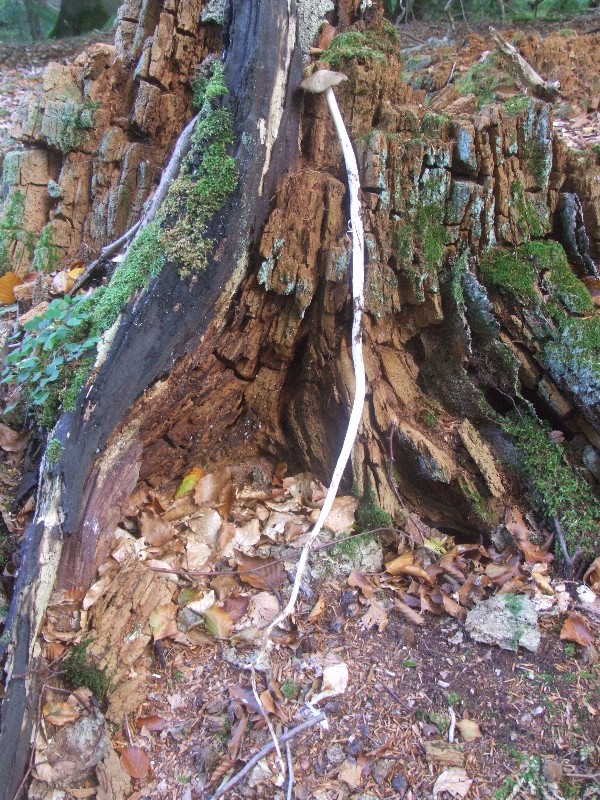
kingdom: Fungi
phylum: Basidiomycota
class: Agaricomycetes
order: Agaricales
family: Physalacriaceae
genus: Hymenopellis
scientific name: Hymenopellis radicata
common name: almindelig pælerodshat
